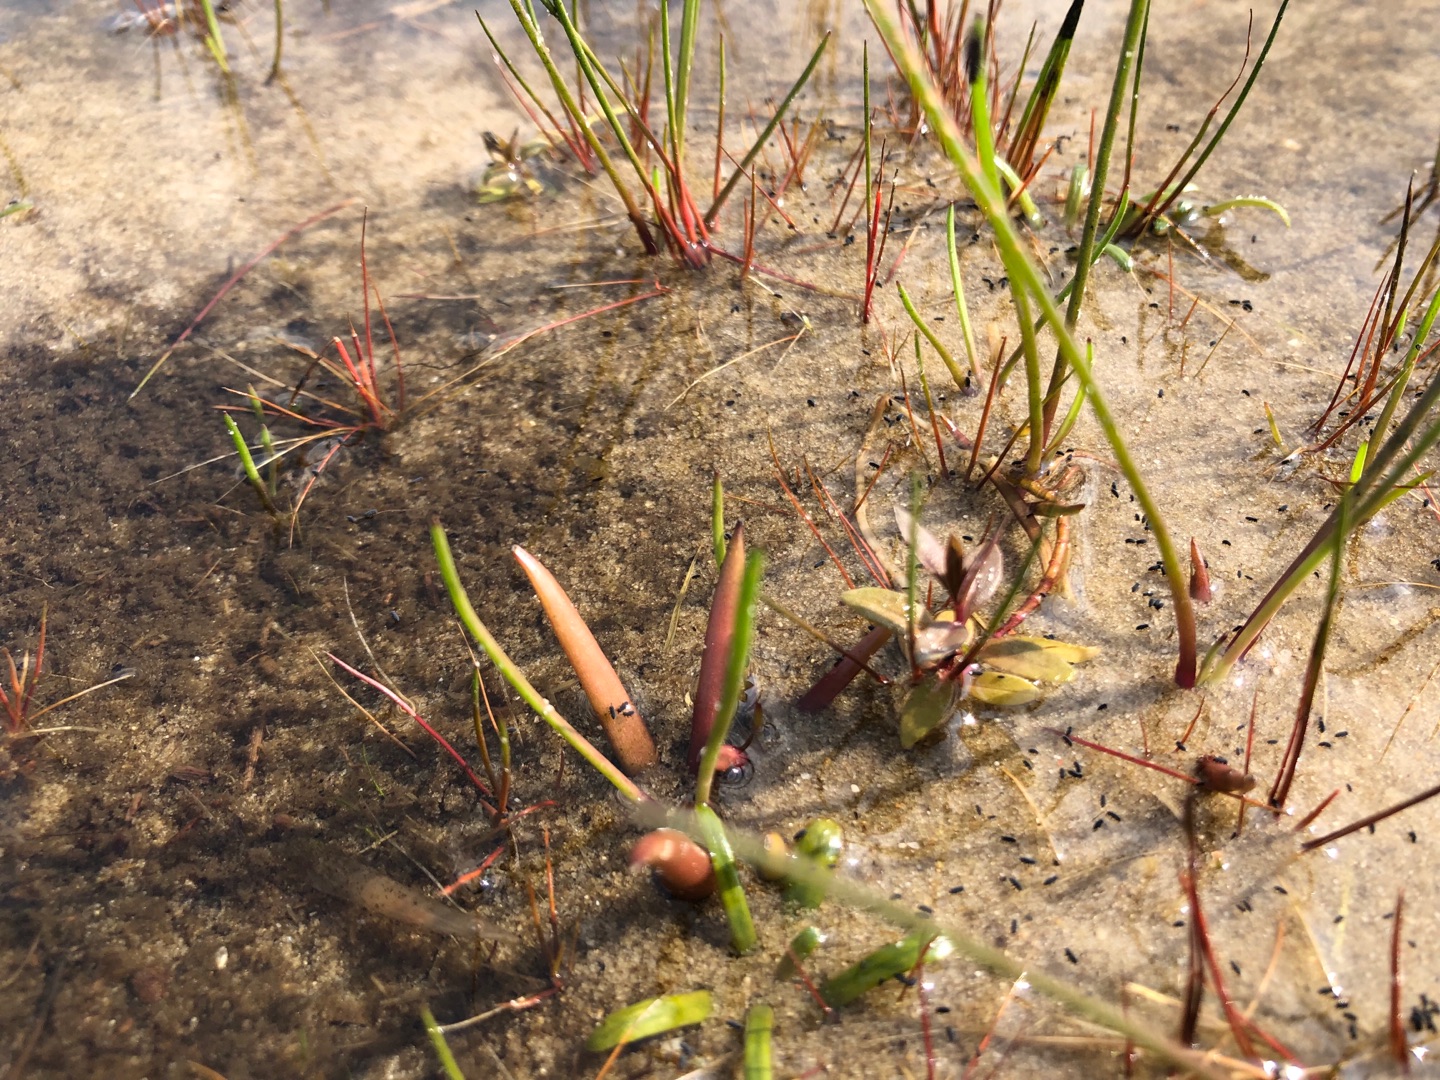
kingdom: Plantae
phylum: Tracheophyta
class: Magnoliopsida
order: Lamiales
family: Plantaginaceae
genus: Littorella
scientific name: Littorella uniflora
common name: Strandbo
